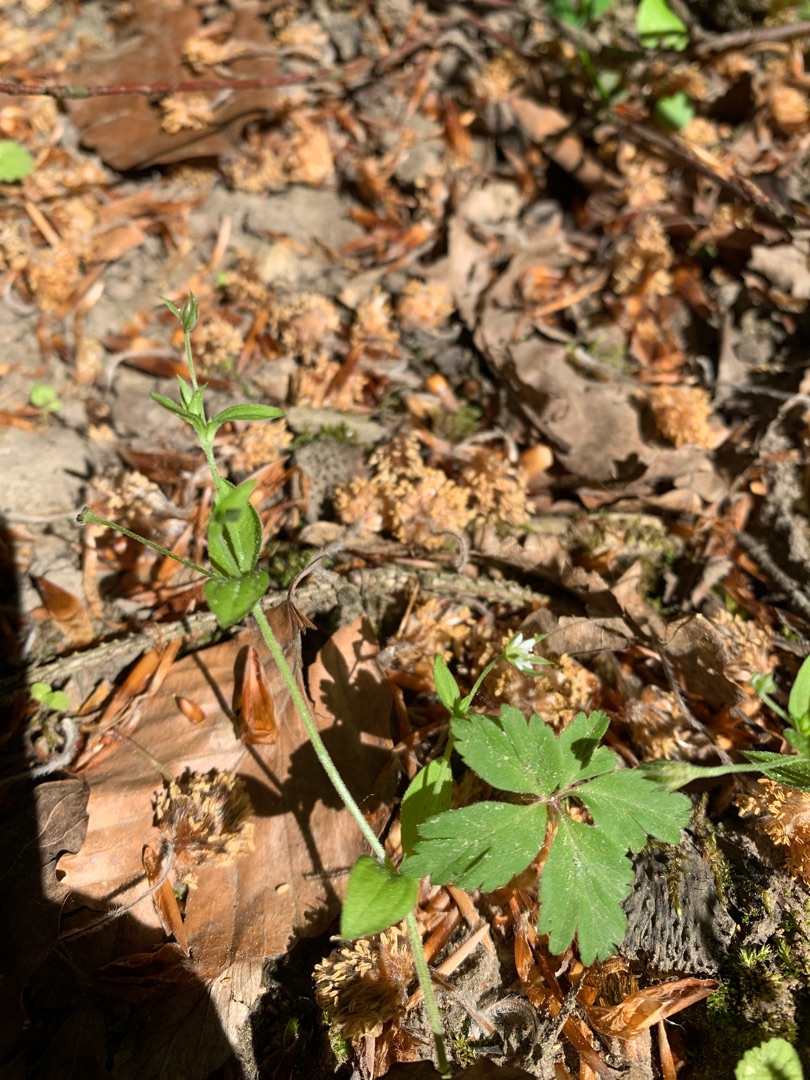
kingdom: Plantae
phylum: Tracheophyta
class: Magnoliopsida
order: Caryophyllales
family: Caryophyllaceae
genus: Moehringia
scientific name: Moehringia trinervia
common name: Skovarve
